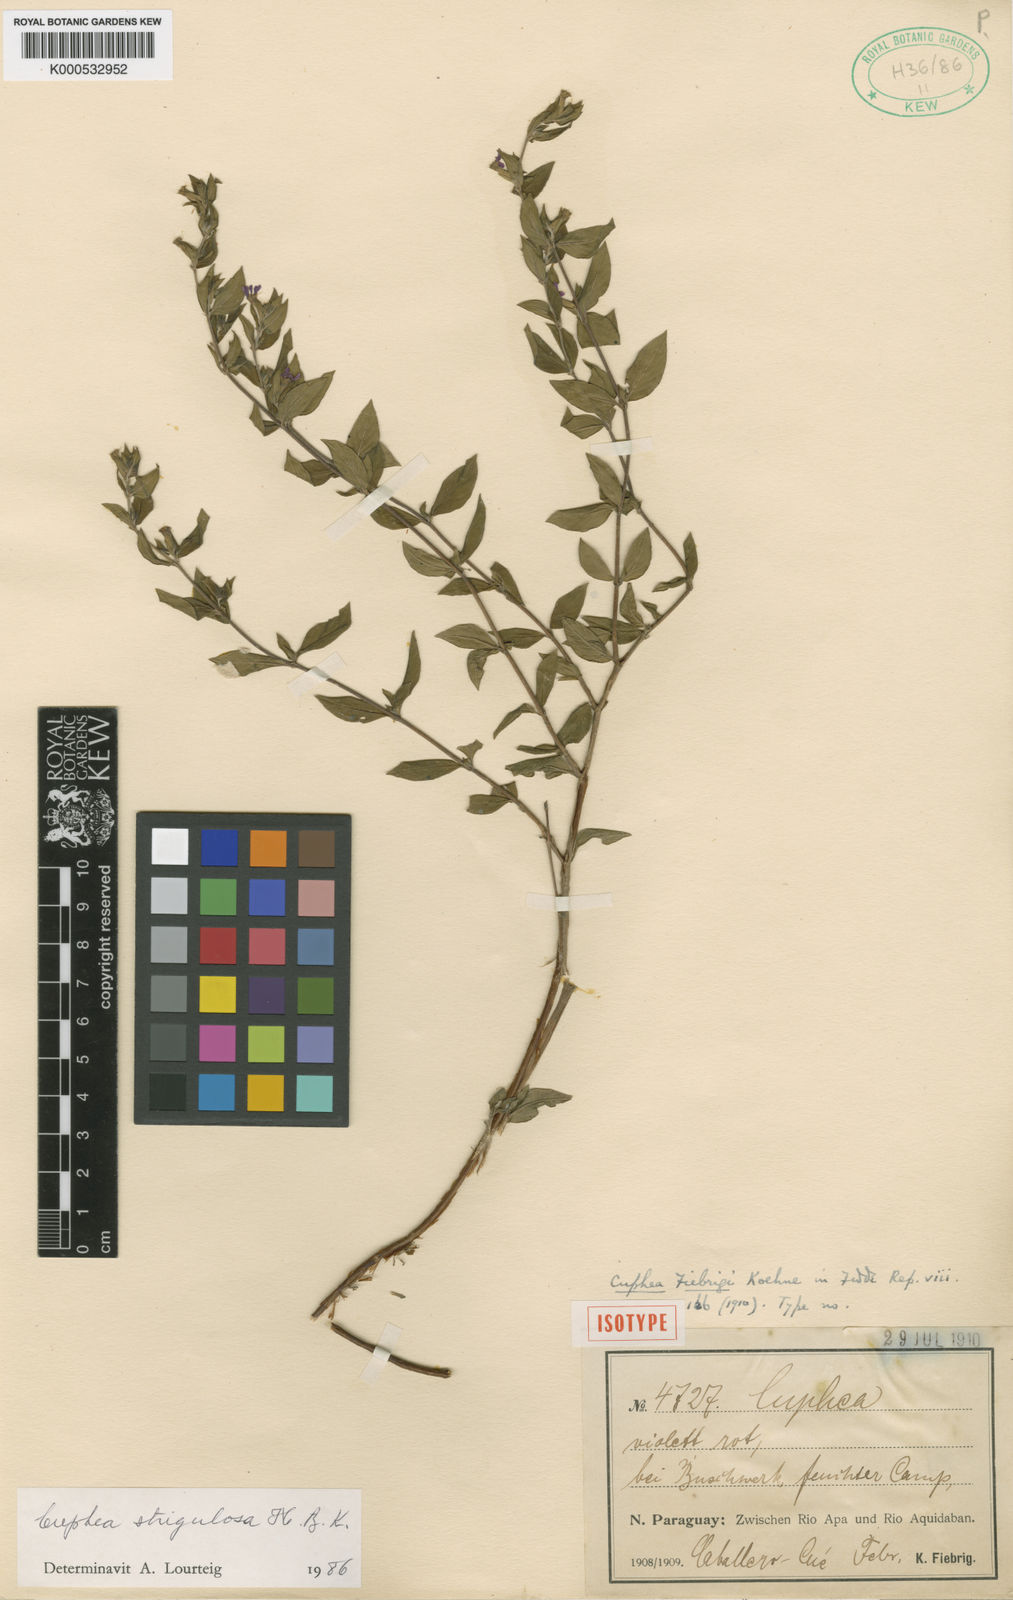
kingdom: Plantae
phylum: Tracheophyta
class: Magnoliopsida
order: Myrtales
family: Lythraceae
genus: Cuphea
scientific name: Cuphea strigulosa
